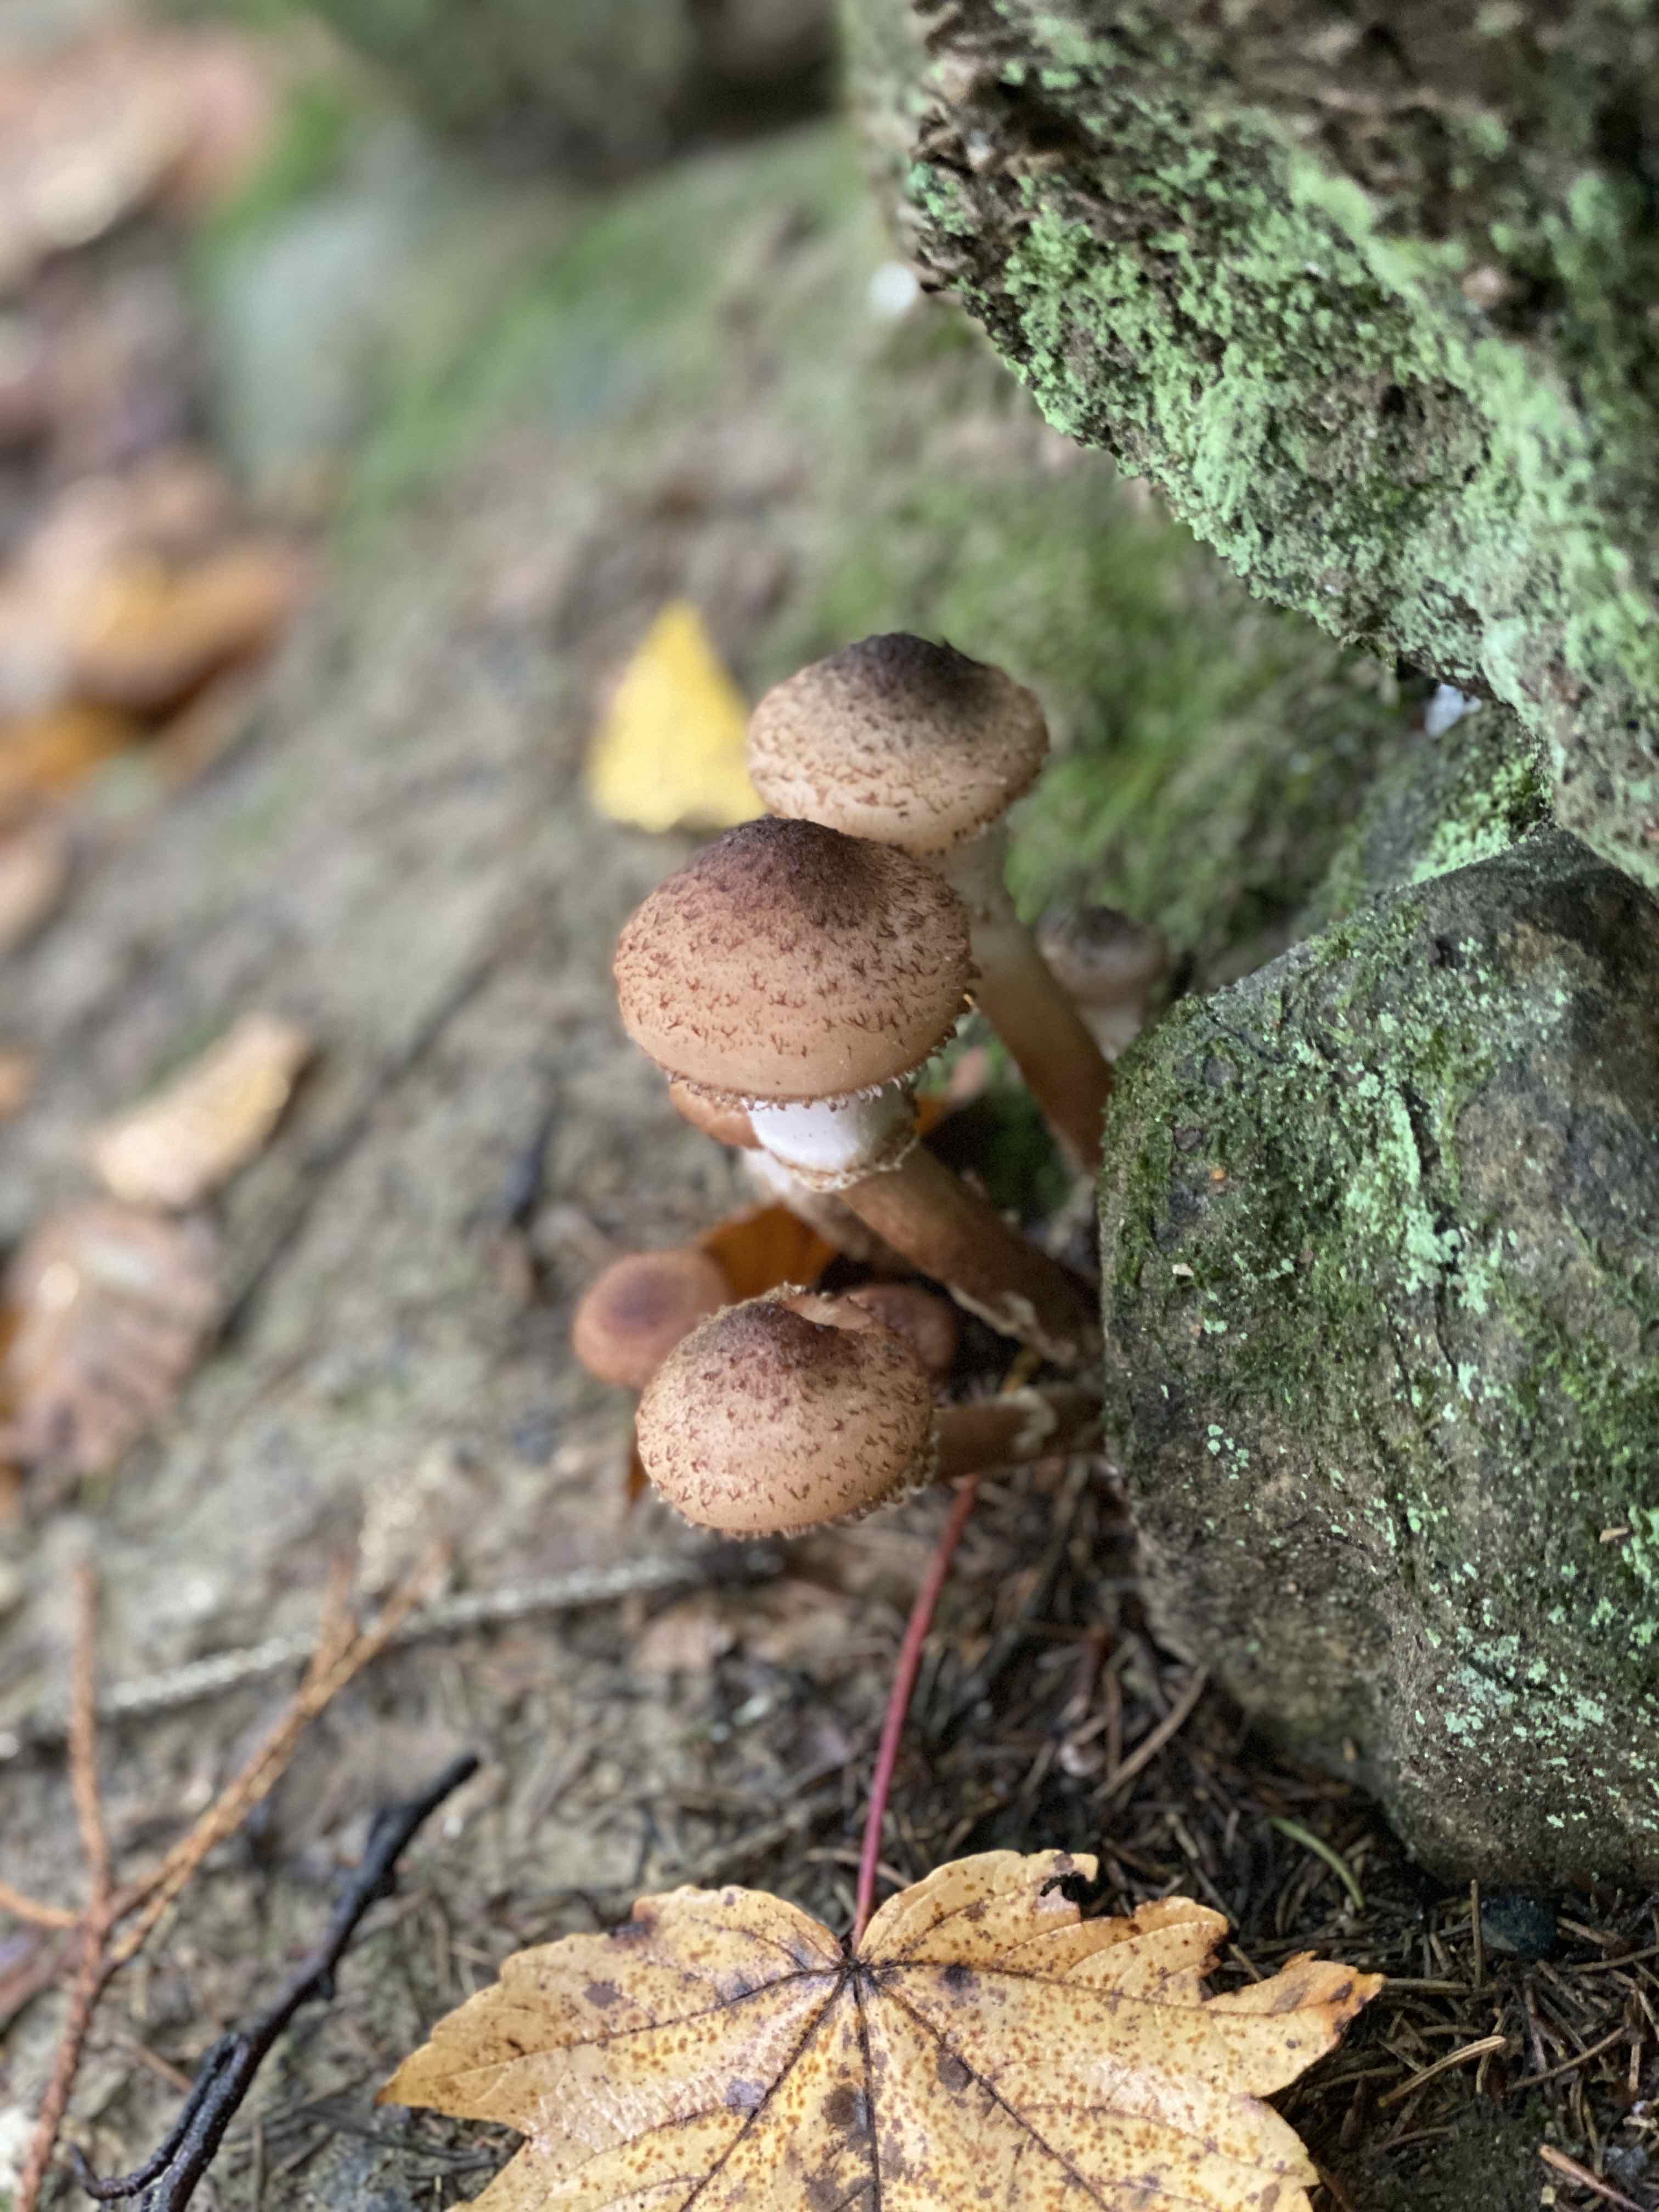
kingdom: Fungi
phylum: Basidiomycota
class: Agaricomycetes
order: Agaricales
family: Physalacriaceae
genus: Armillaria
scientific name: Armillaria ostoyae
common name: mørk honningsvamp
